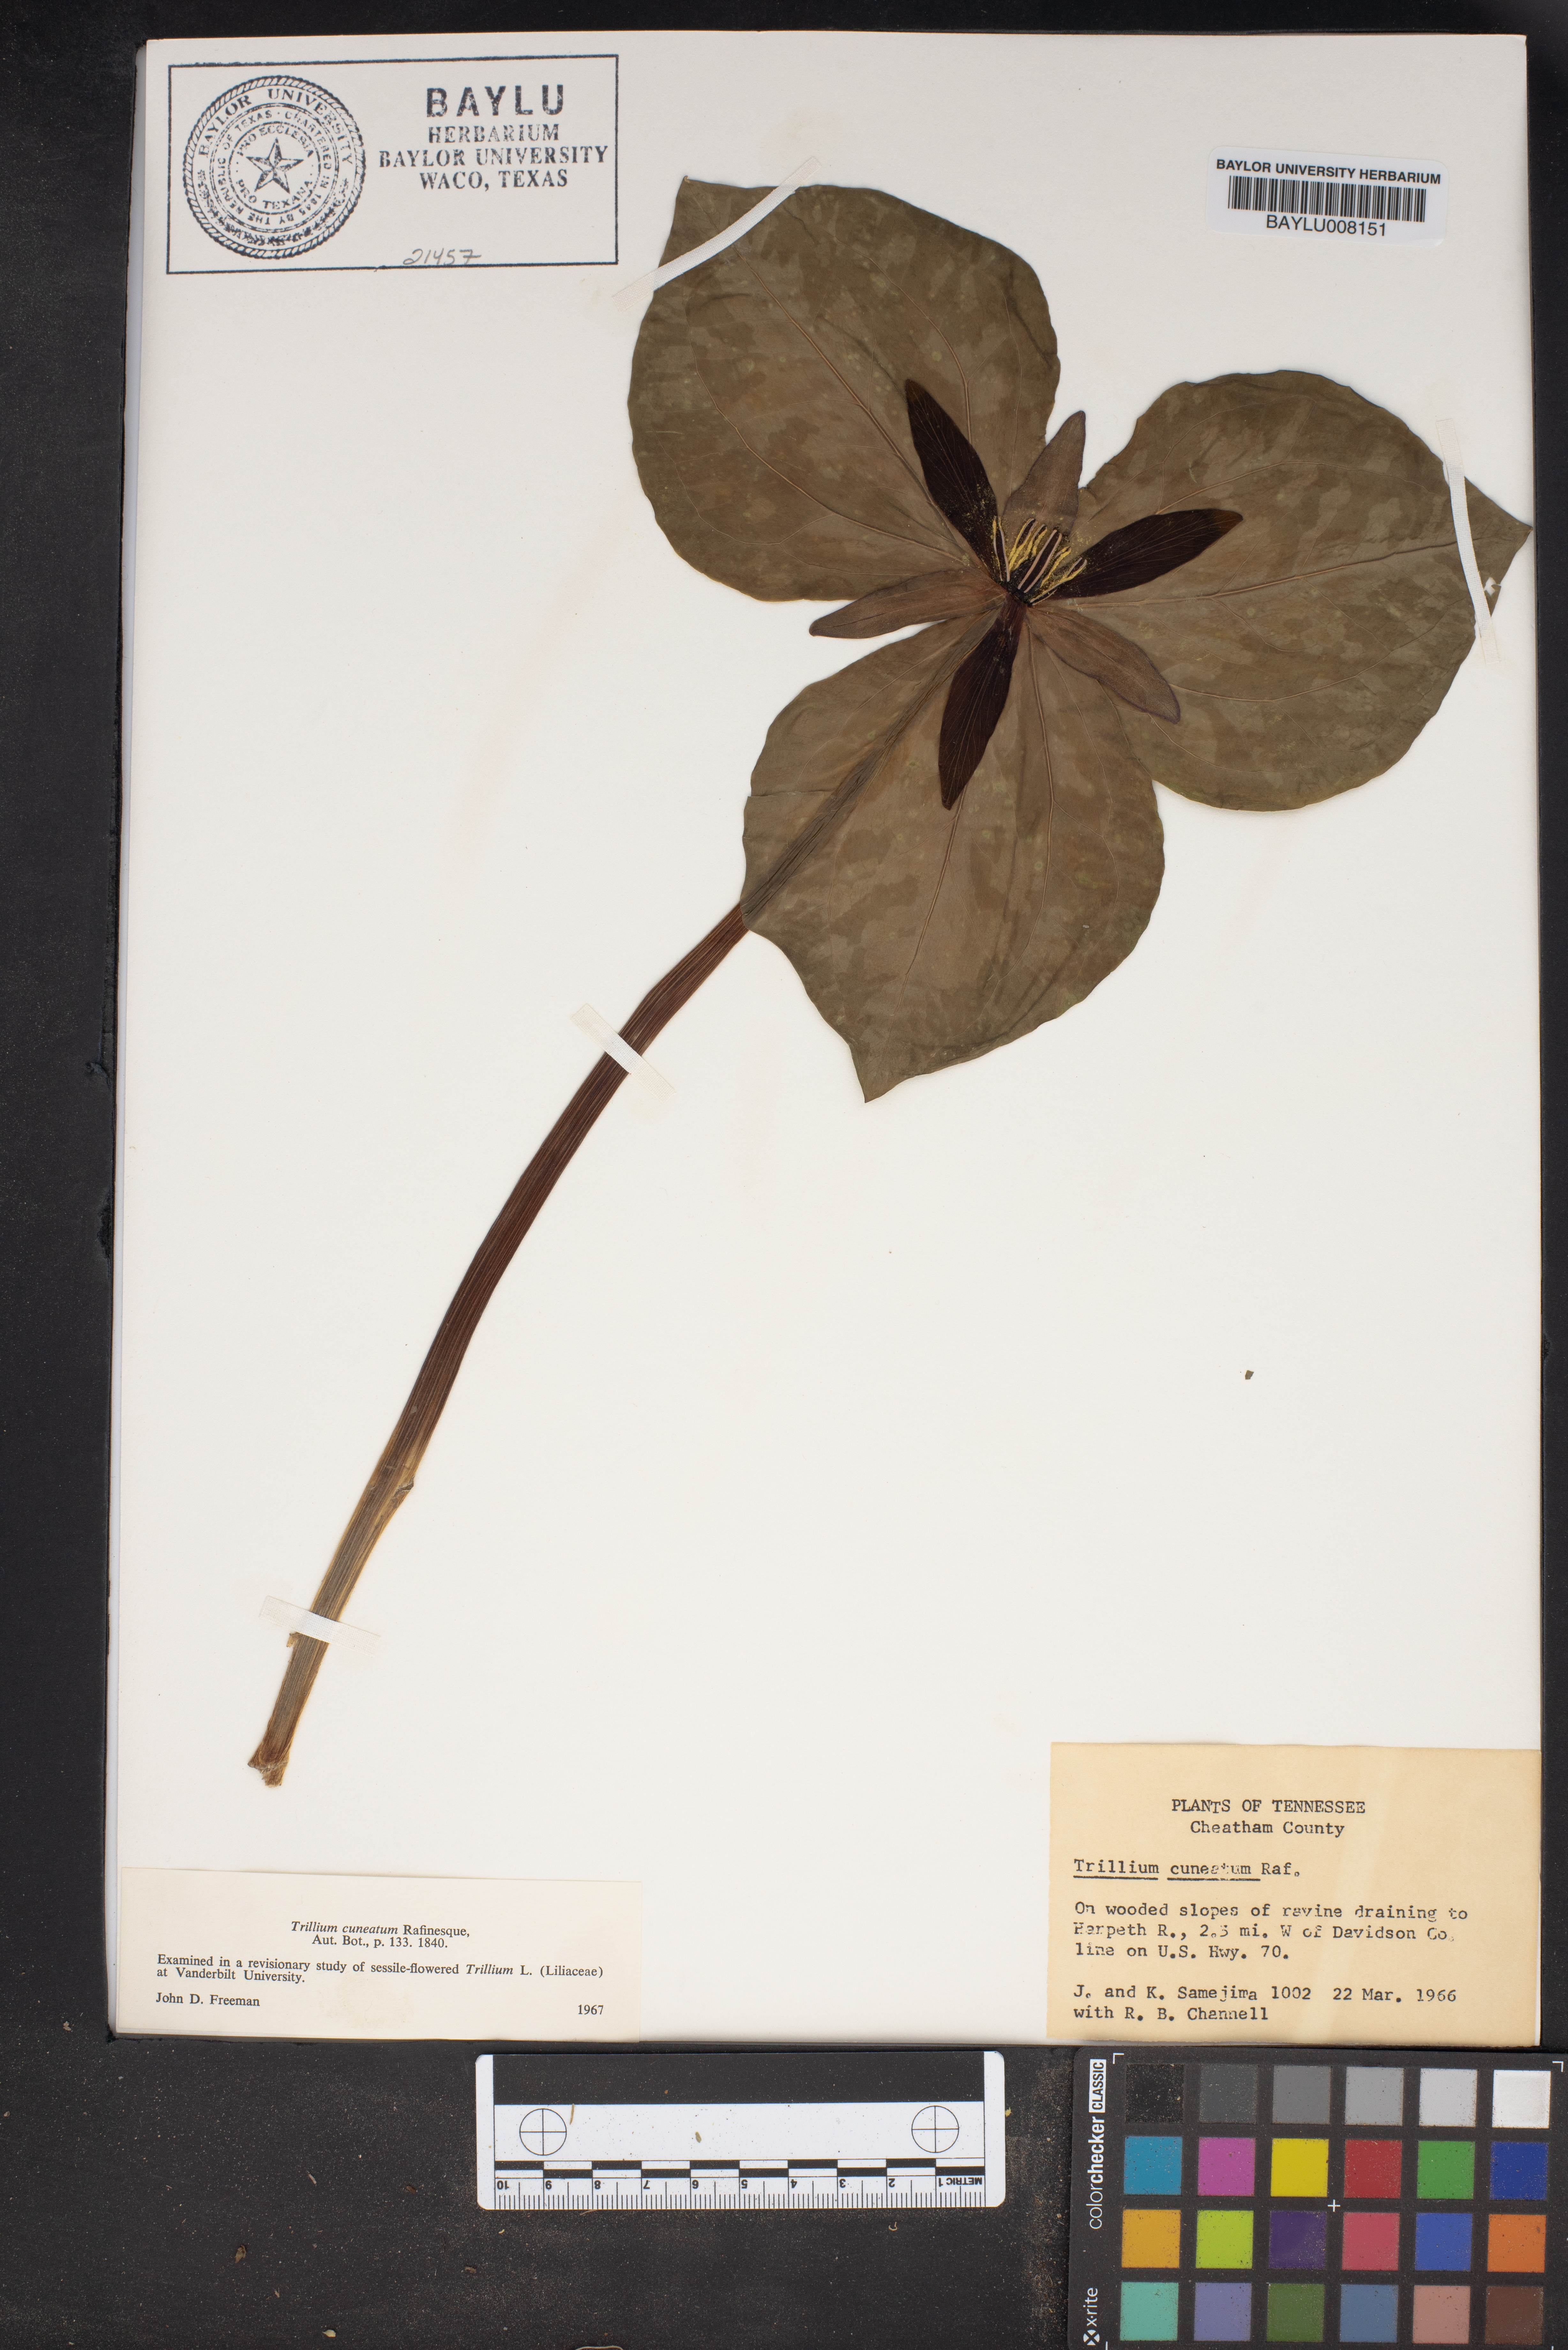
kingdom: Plantae
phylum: Tracheophyta
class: Liliopsida
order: Liliales
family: Melanthiaceae
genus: Trillium
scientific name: Trillium cuneatum
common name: Cuneate trillium
